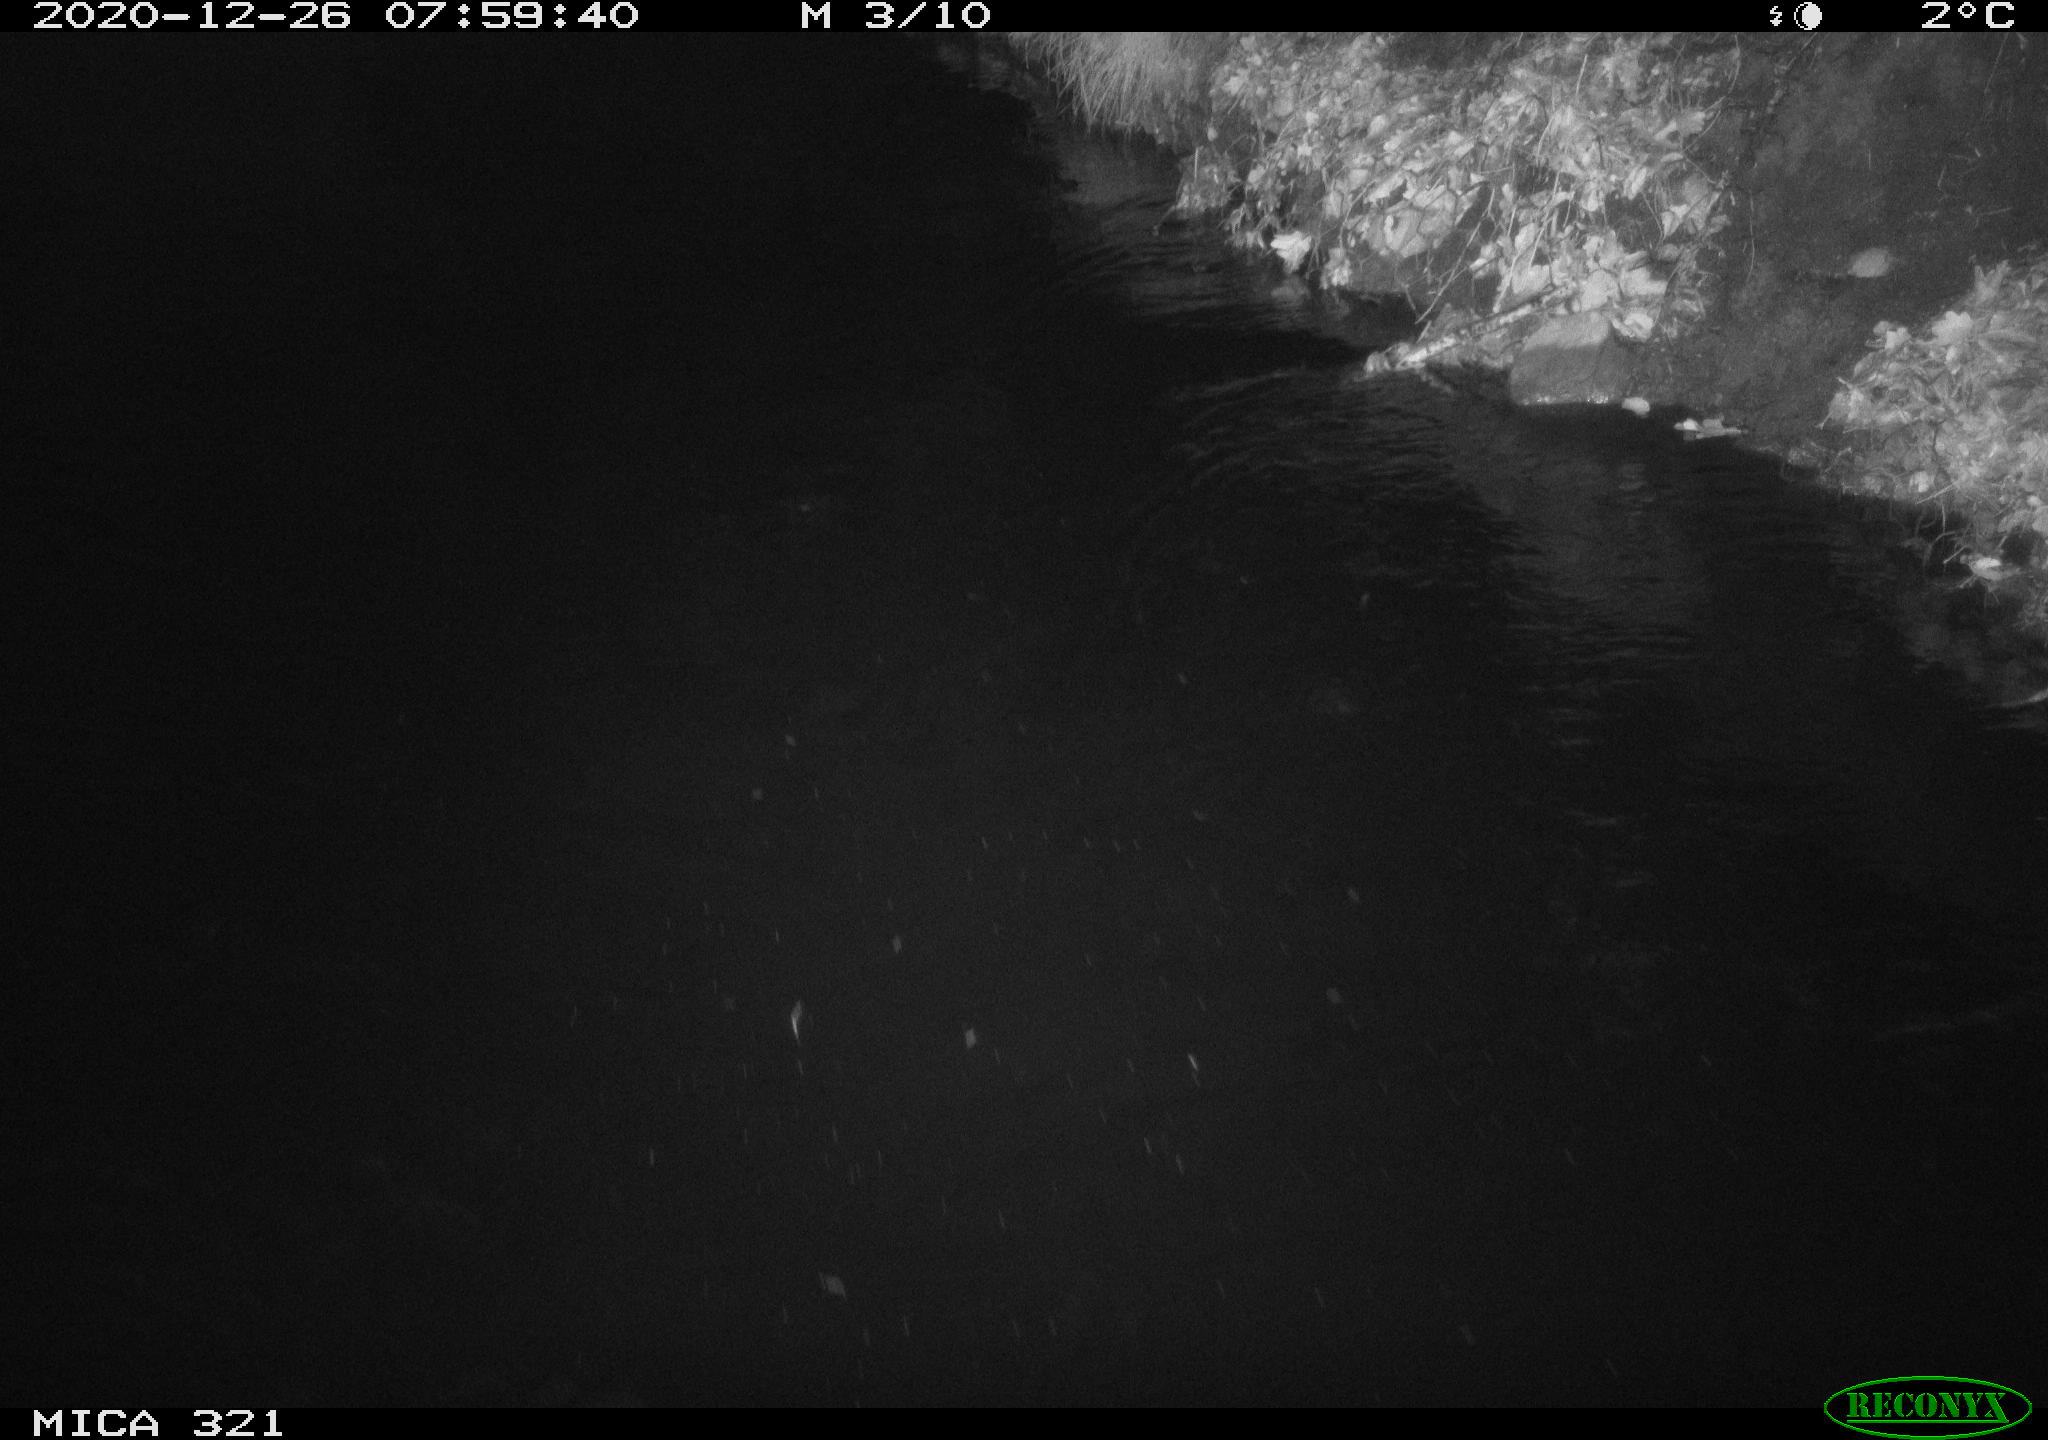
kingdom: Animalia
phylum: Chordata
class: Aves
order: Anseriformes
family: Anatidae
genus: Anas
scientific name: Anas platyrhynchos
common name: Mallard
